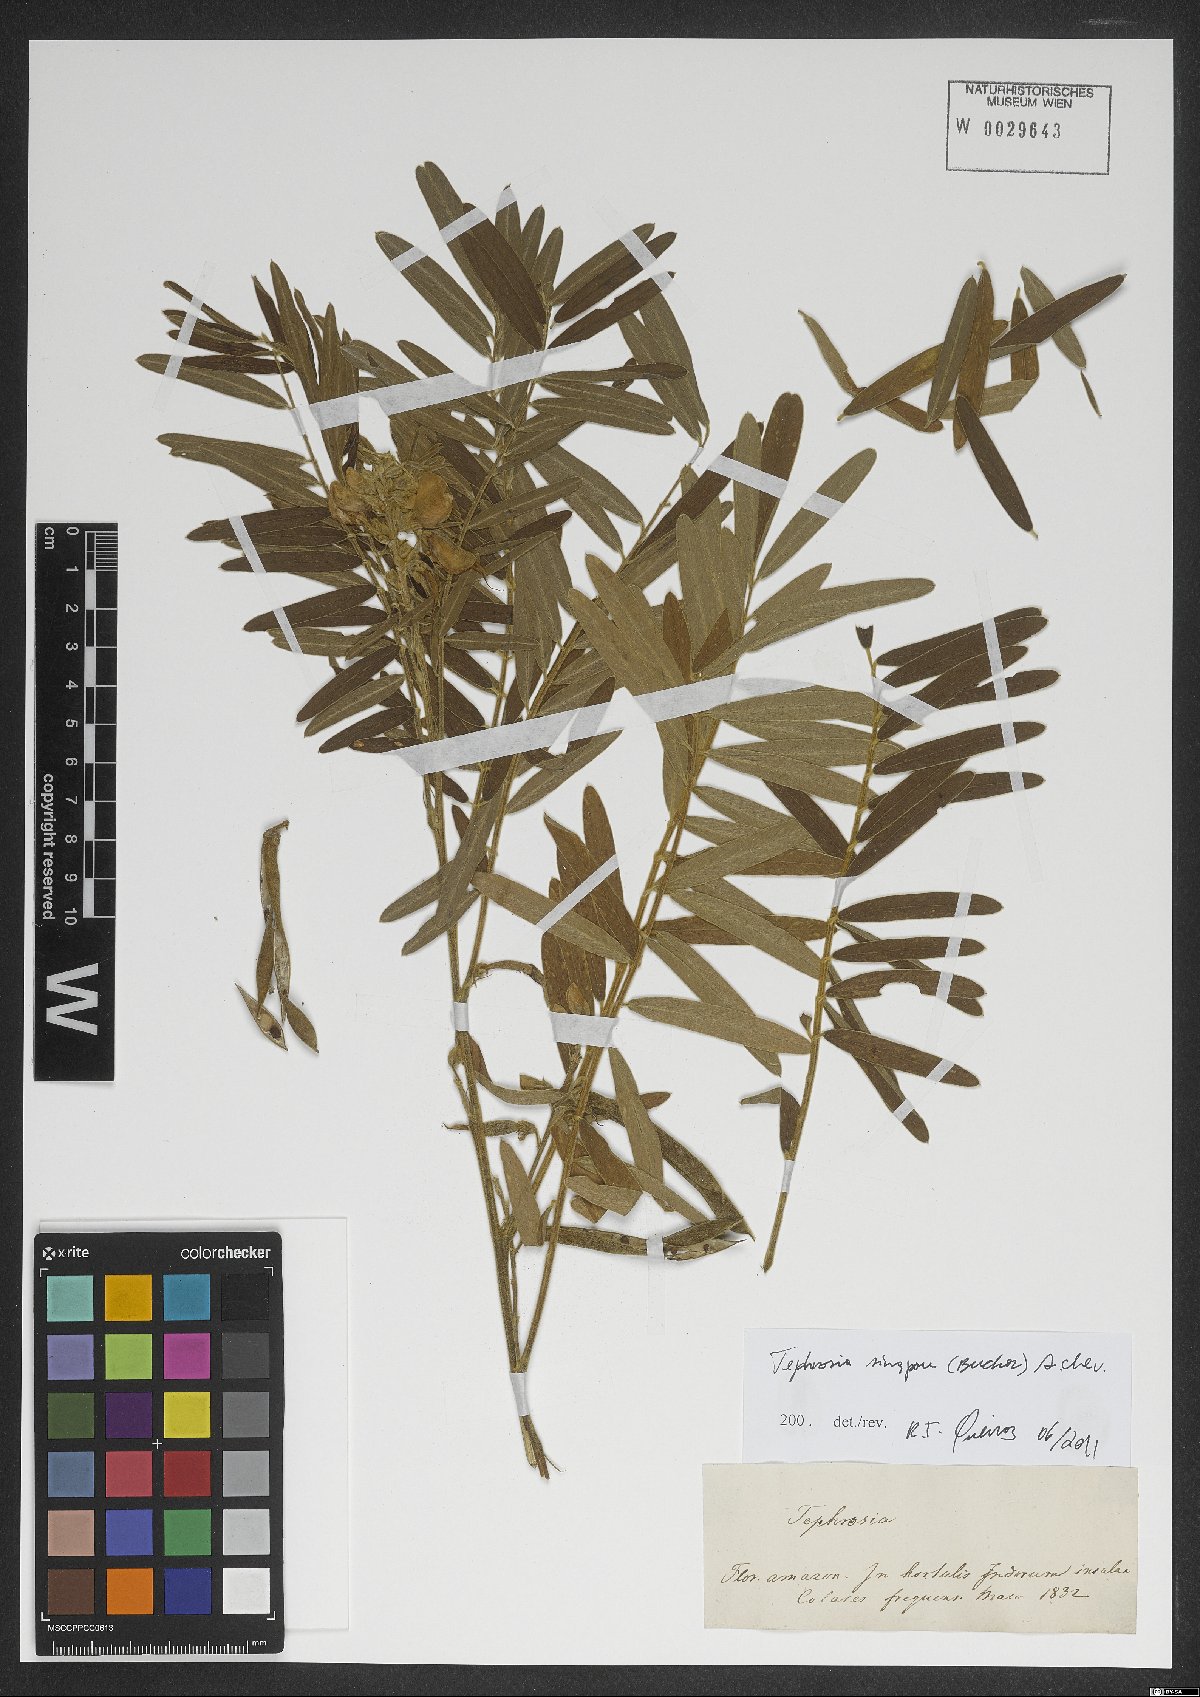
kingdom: Plantae
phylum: Tracheophyta
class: Magnoliopsida
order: Fabales
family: Fabaceae
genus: Tephrosia
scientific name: Tephrosia sinapou
